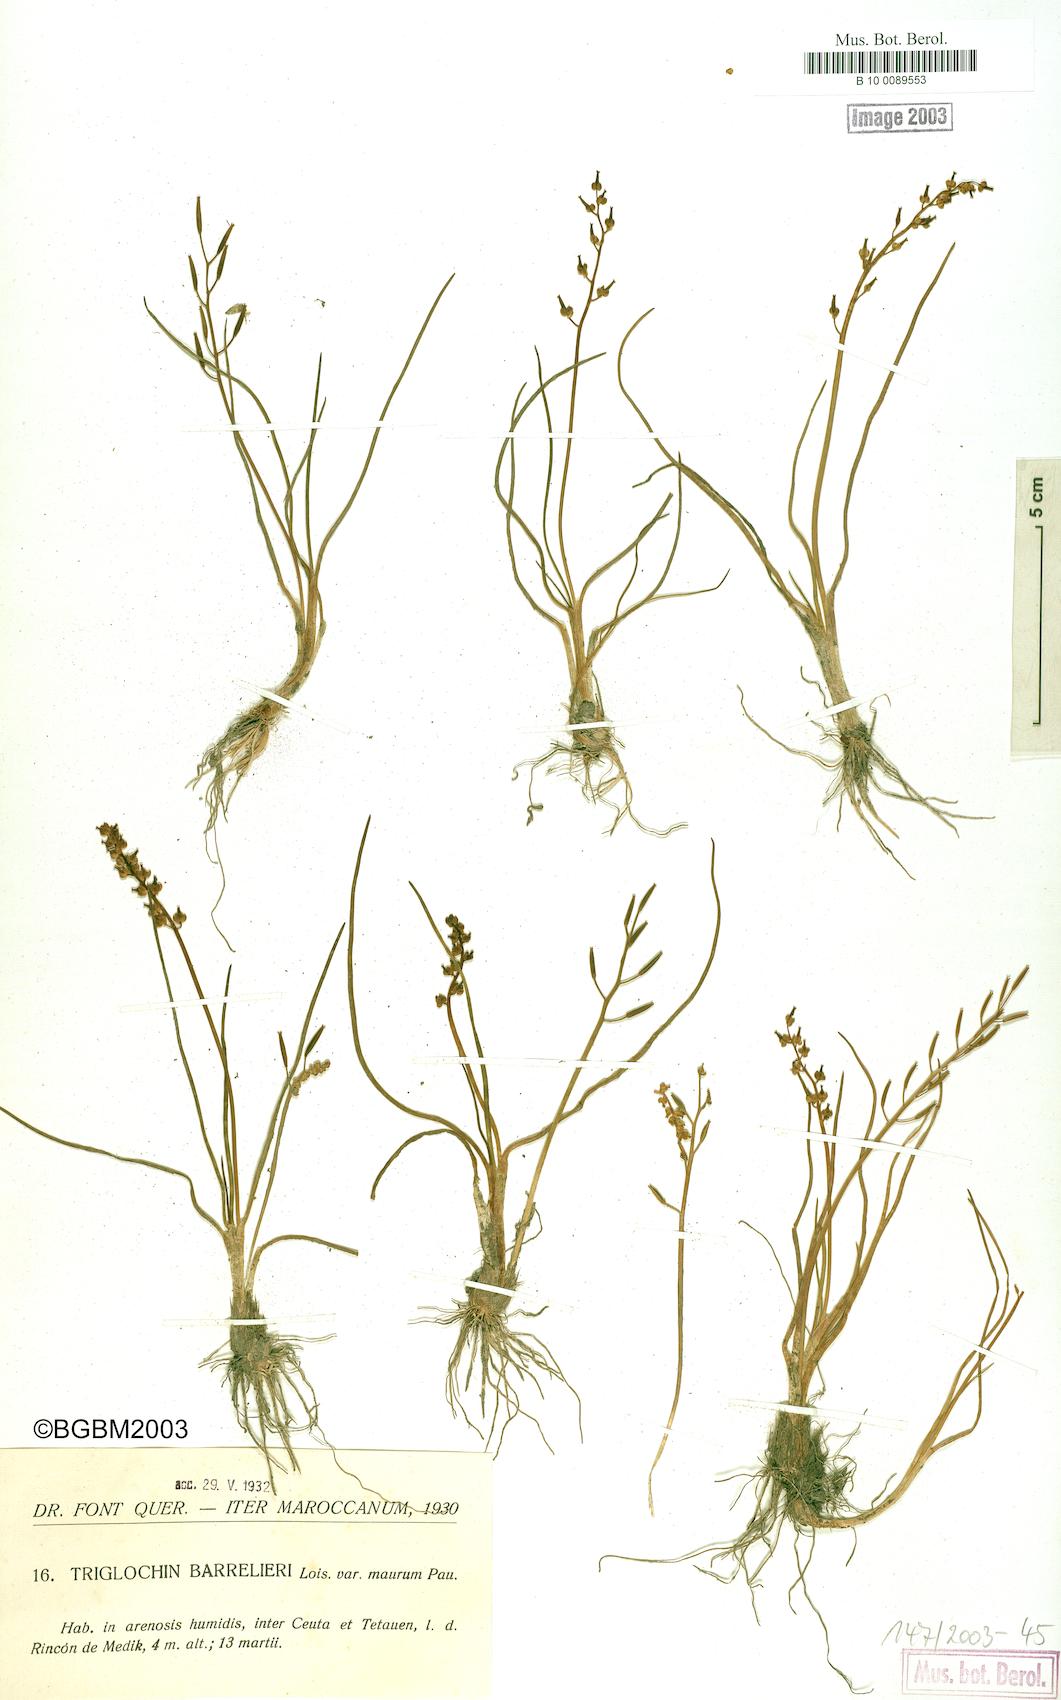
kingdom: Plantae
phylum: Tracheophyta
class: Liliopsida
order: Alismatales
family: Juncaginaceae
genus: Triglochin
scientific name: Triglochin bulbosa
